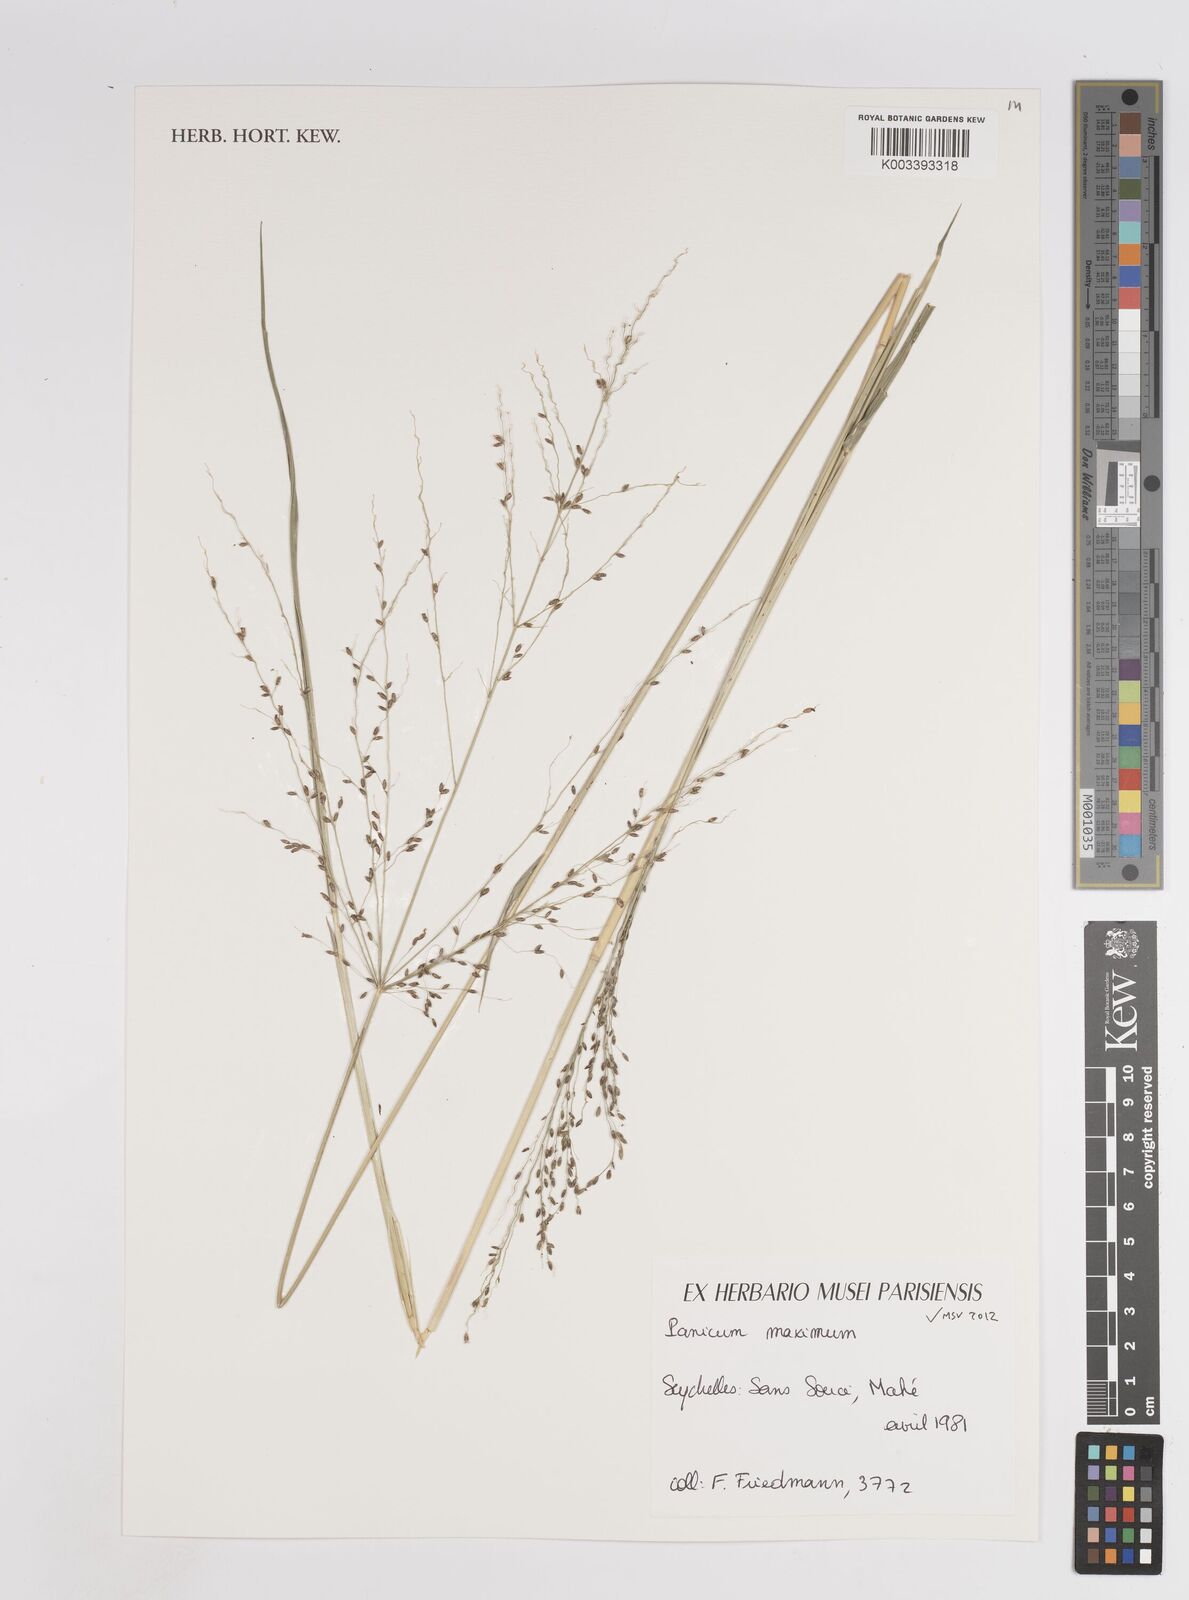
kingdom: Plantae
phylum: Tracheophyta
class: Liliopsida
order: Poales
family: Poaceae
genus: Megathyrsus
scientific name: Megathyrsus maximus
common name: Guineagrass
